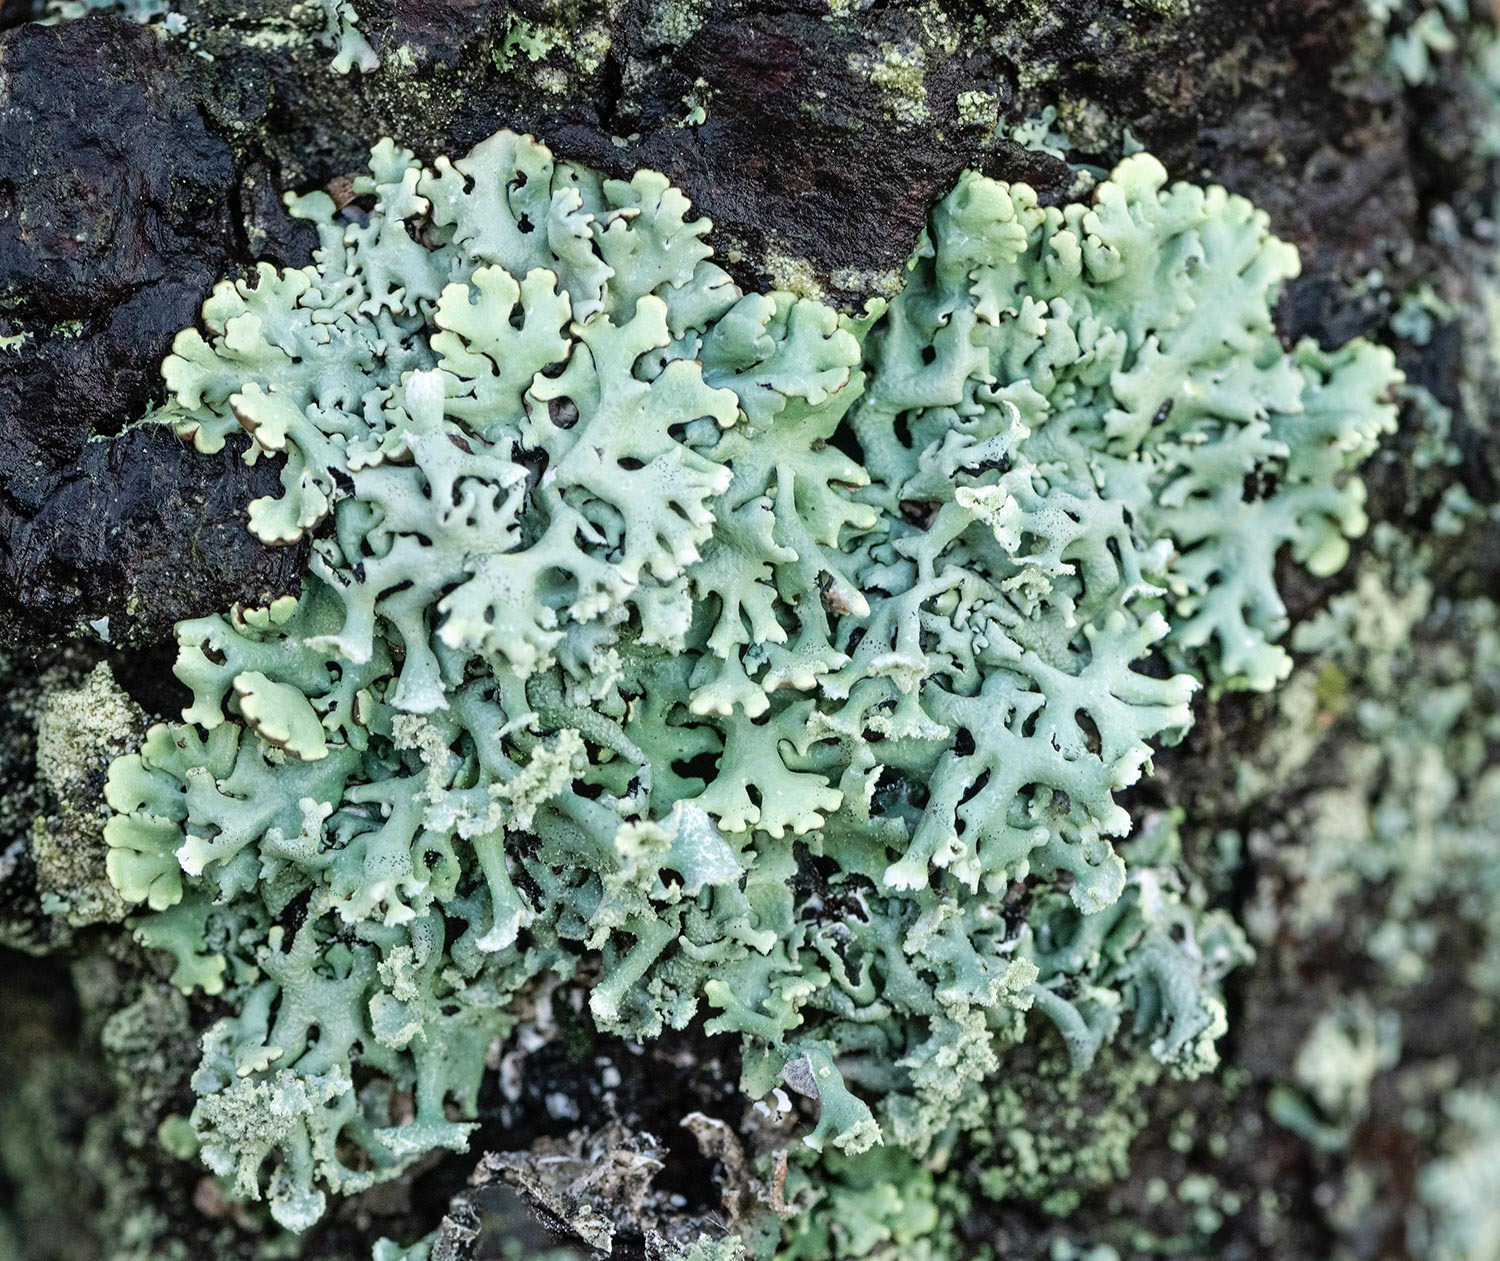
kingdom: Fungi
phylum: Ascomycota
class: Lecanoromycetes
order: Lecanorales
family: Parmeliaceae
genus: Hypogymnia
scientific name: Hypogymnia physodes
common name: Almindelig kvistlav
